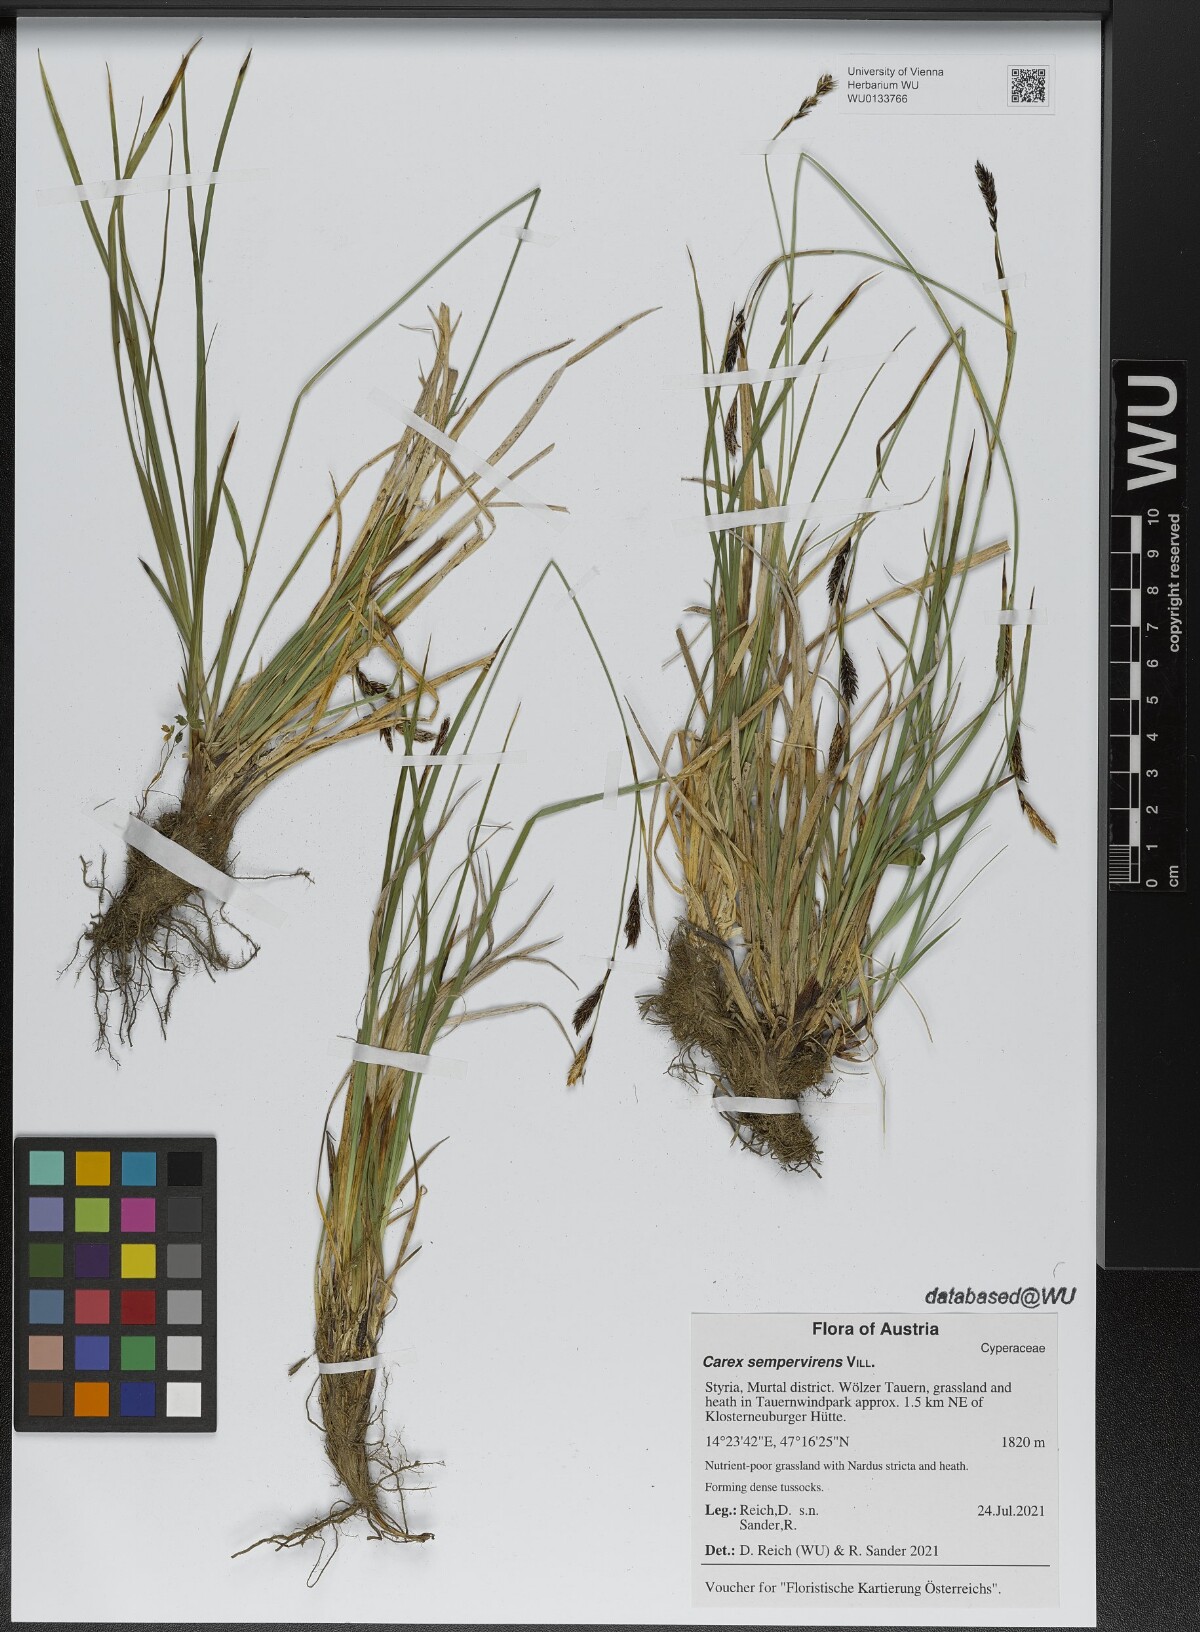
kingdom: Plantae
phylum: Tracheophyta
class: Liliopsida
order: Poales
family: Cyperaceae
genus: Carex
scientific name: Carex sempervirens
